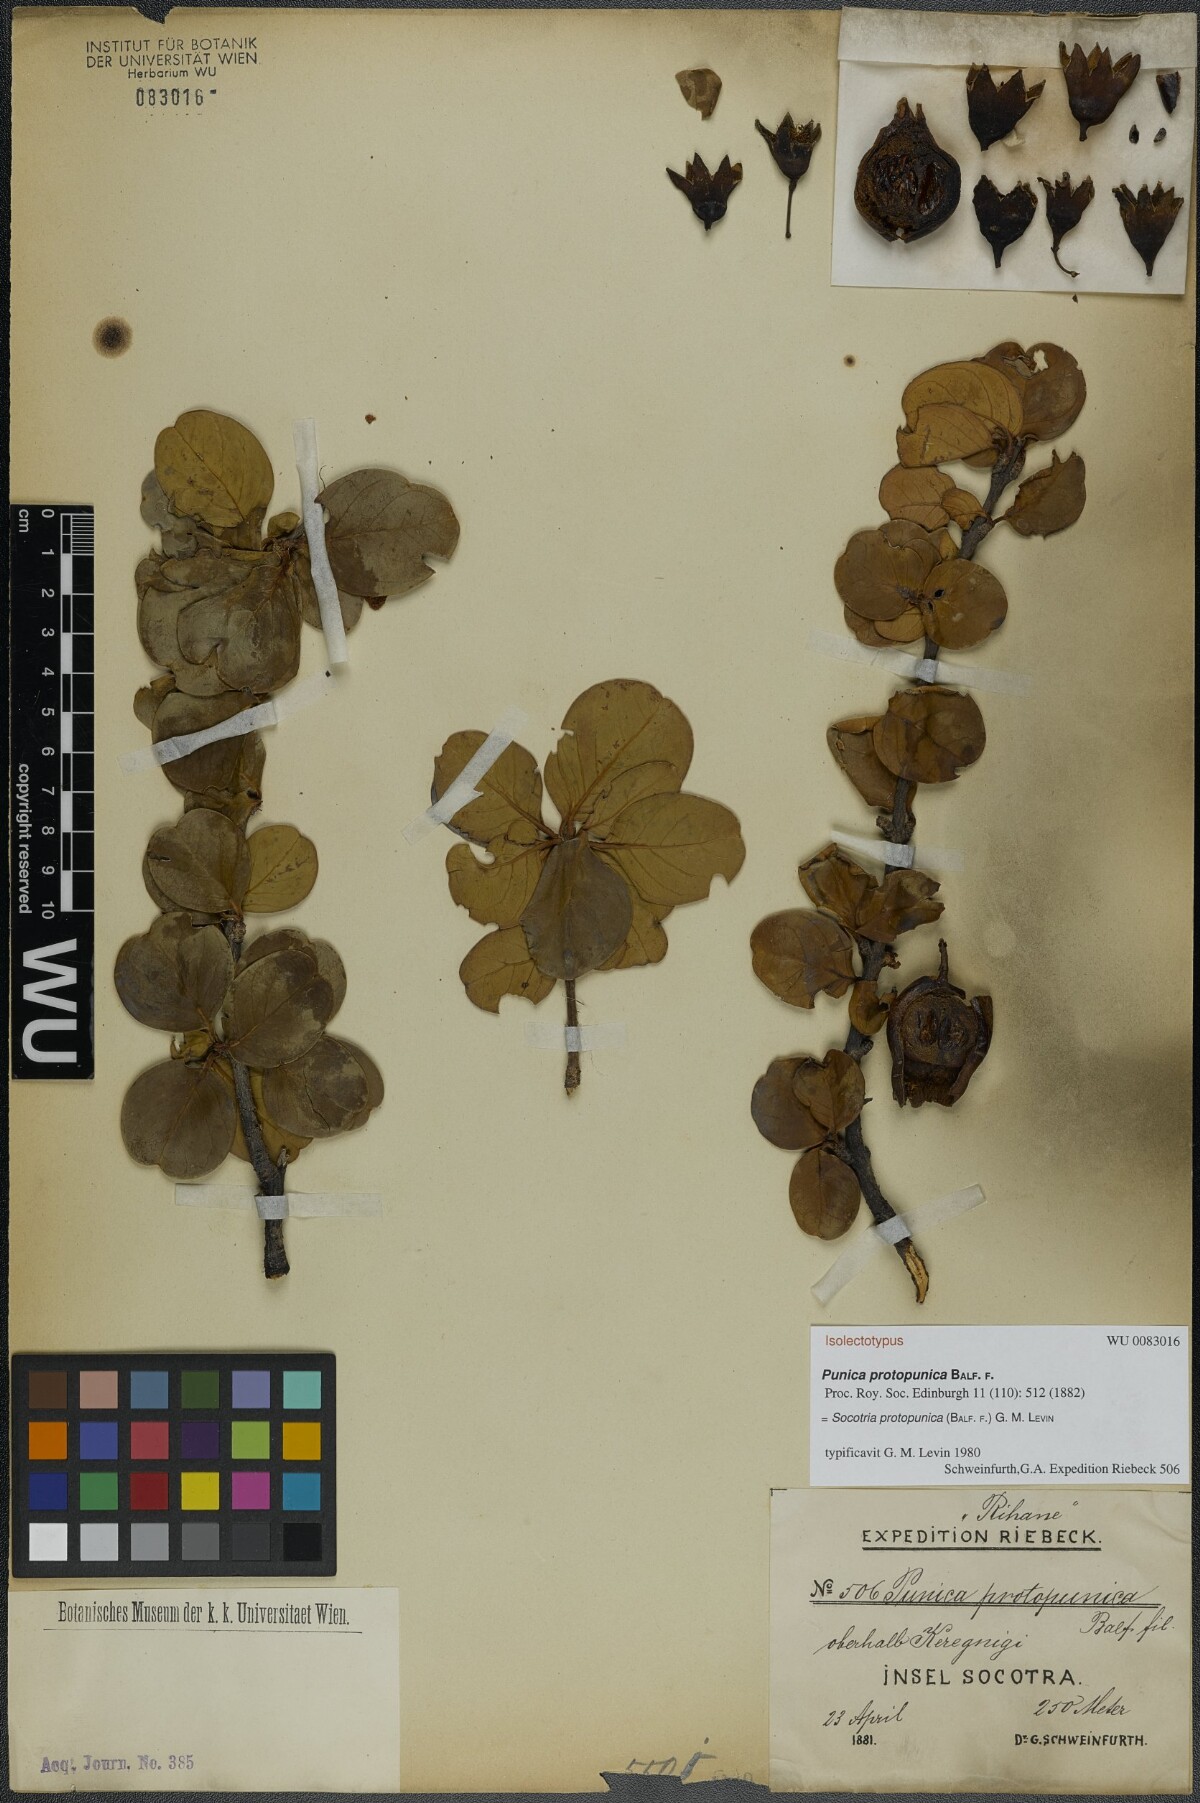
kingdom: Plantae
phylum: Tracheophyta
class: Magnoliopsida
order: Myrtales
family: Lythraceae
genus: Punica
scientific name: Punica protopunica
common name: Pomegranate tree
